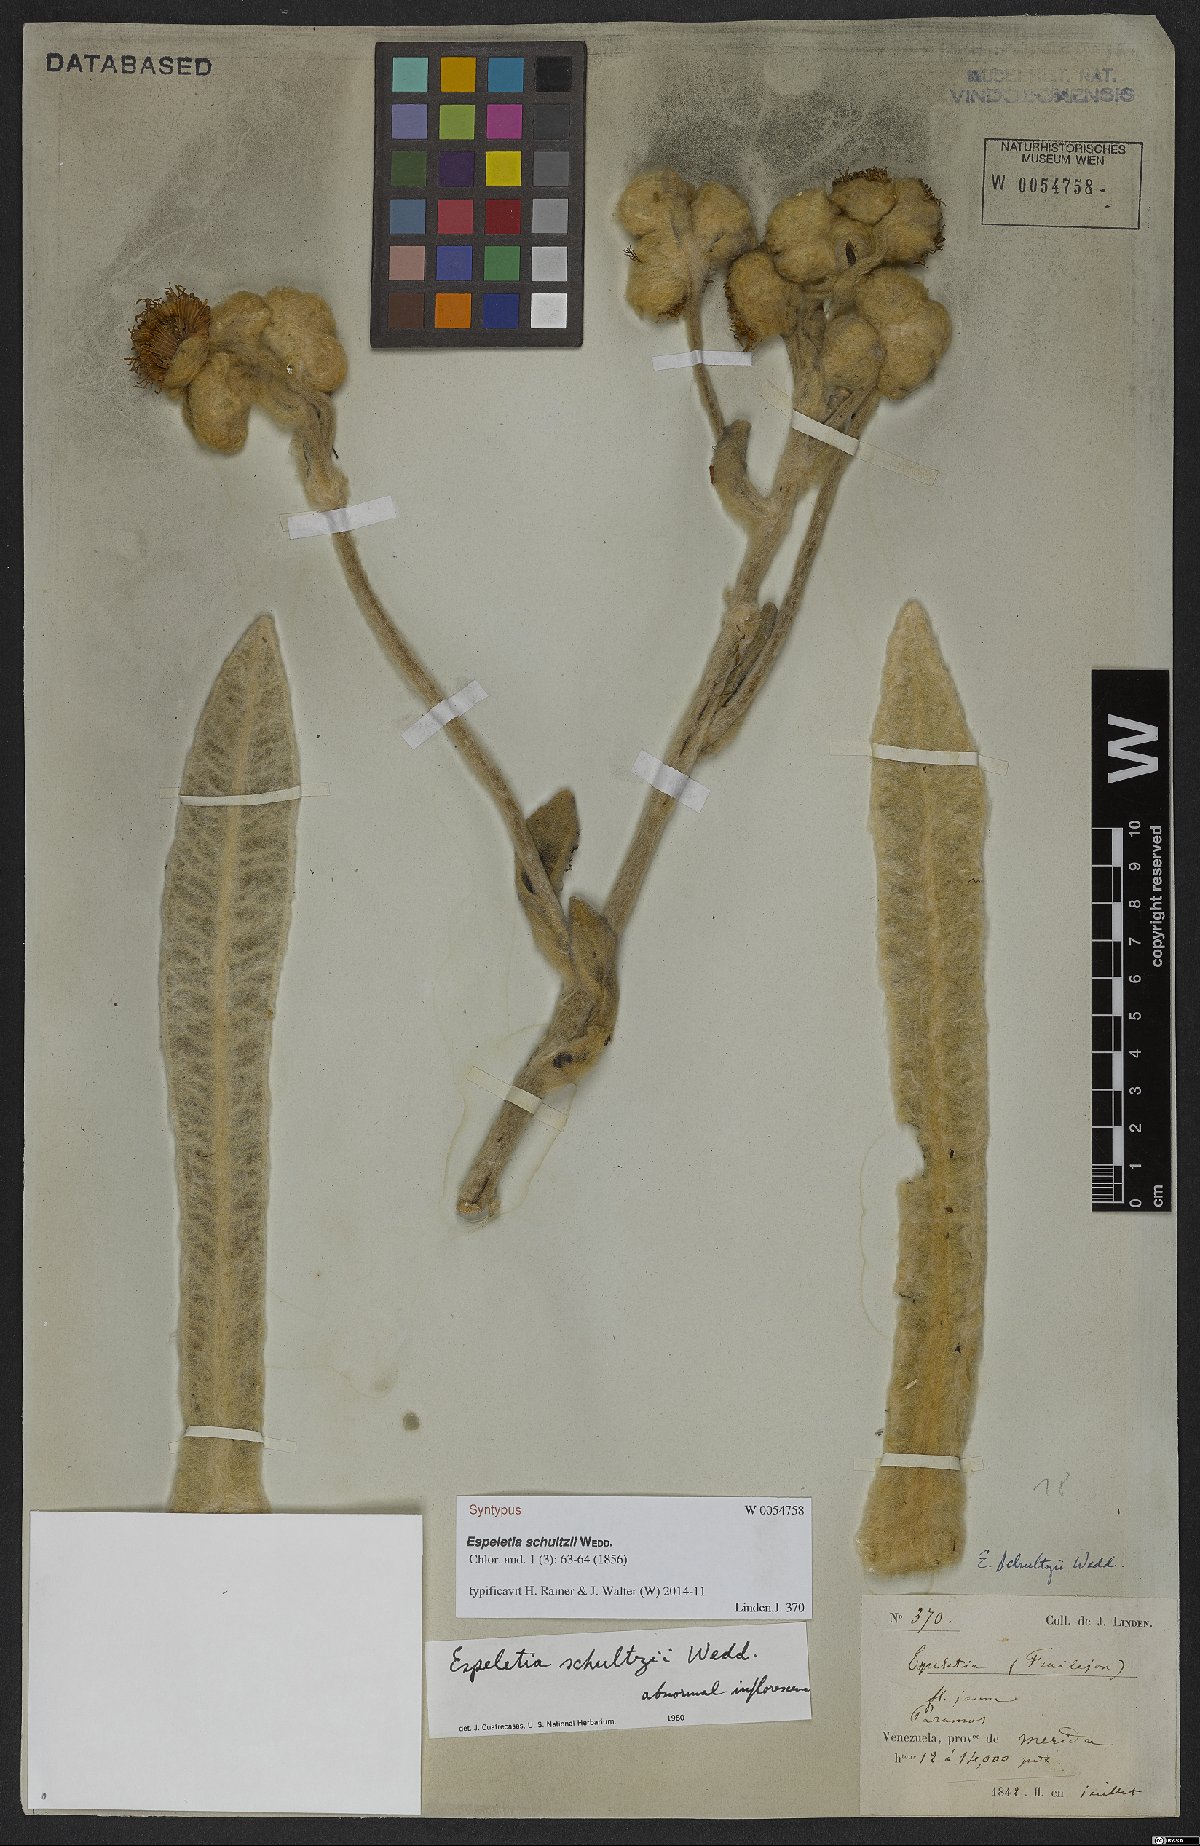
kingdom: Plantae
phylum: Tracheophyta
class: Magnoliopsida
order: Asterales
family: Asteraceae
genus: Espeletia
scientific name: Espeletia schultzii
